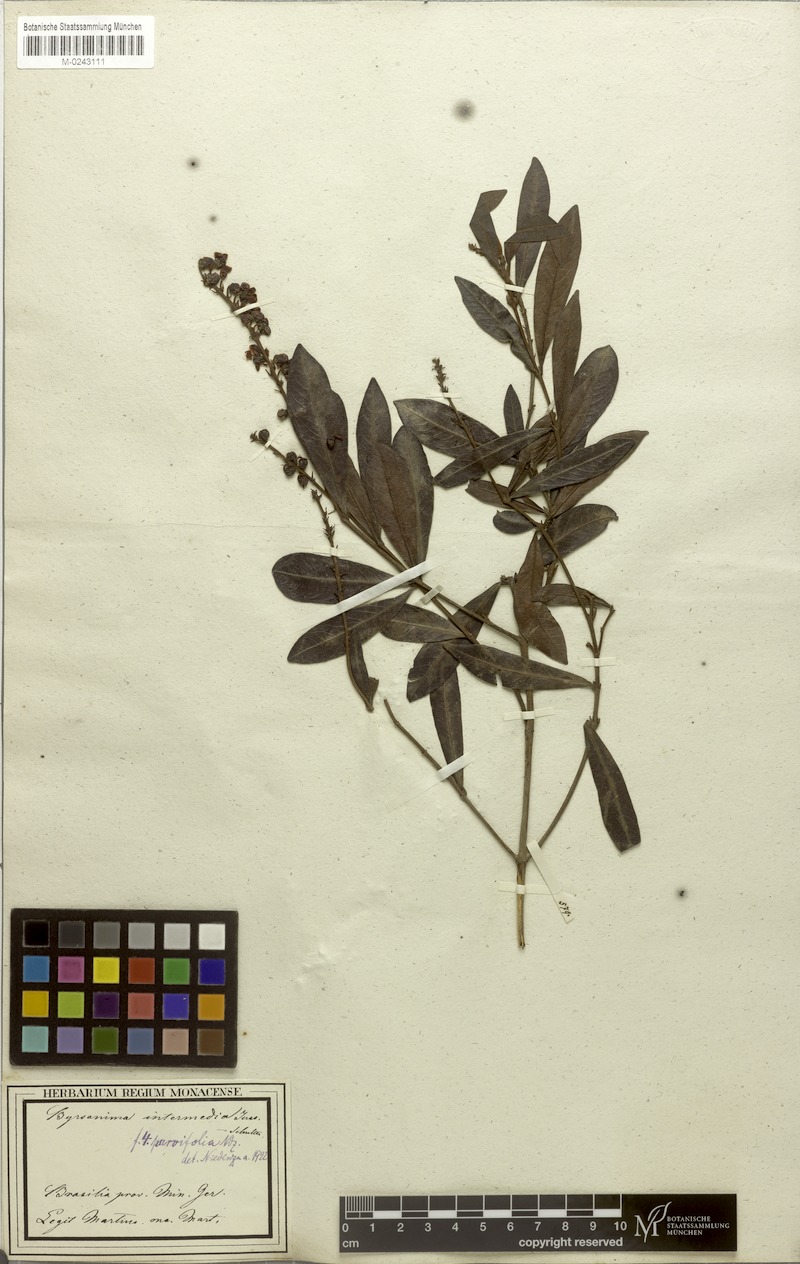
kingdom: Plantae
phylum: Tracheophyta
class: Magnoliopsida
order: Malpighiales
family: Malpighiaceae
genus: Byrsonima
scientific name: Byrsonima intermedia
